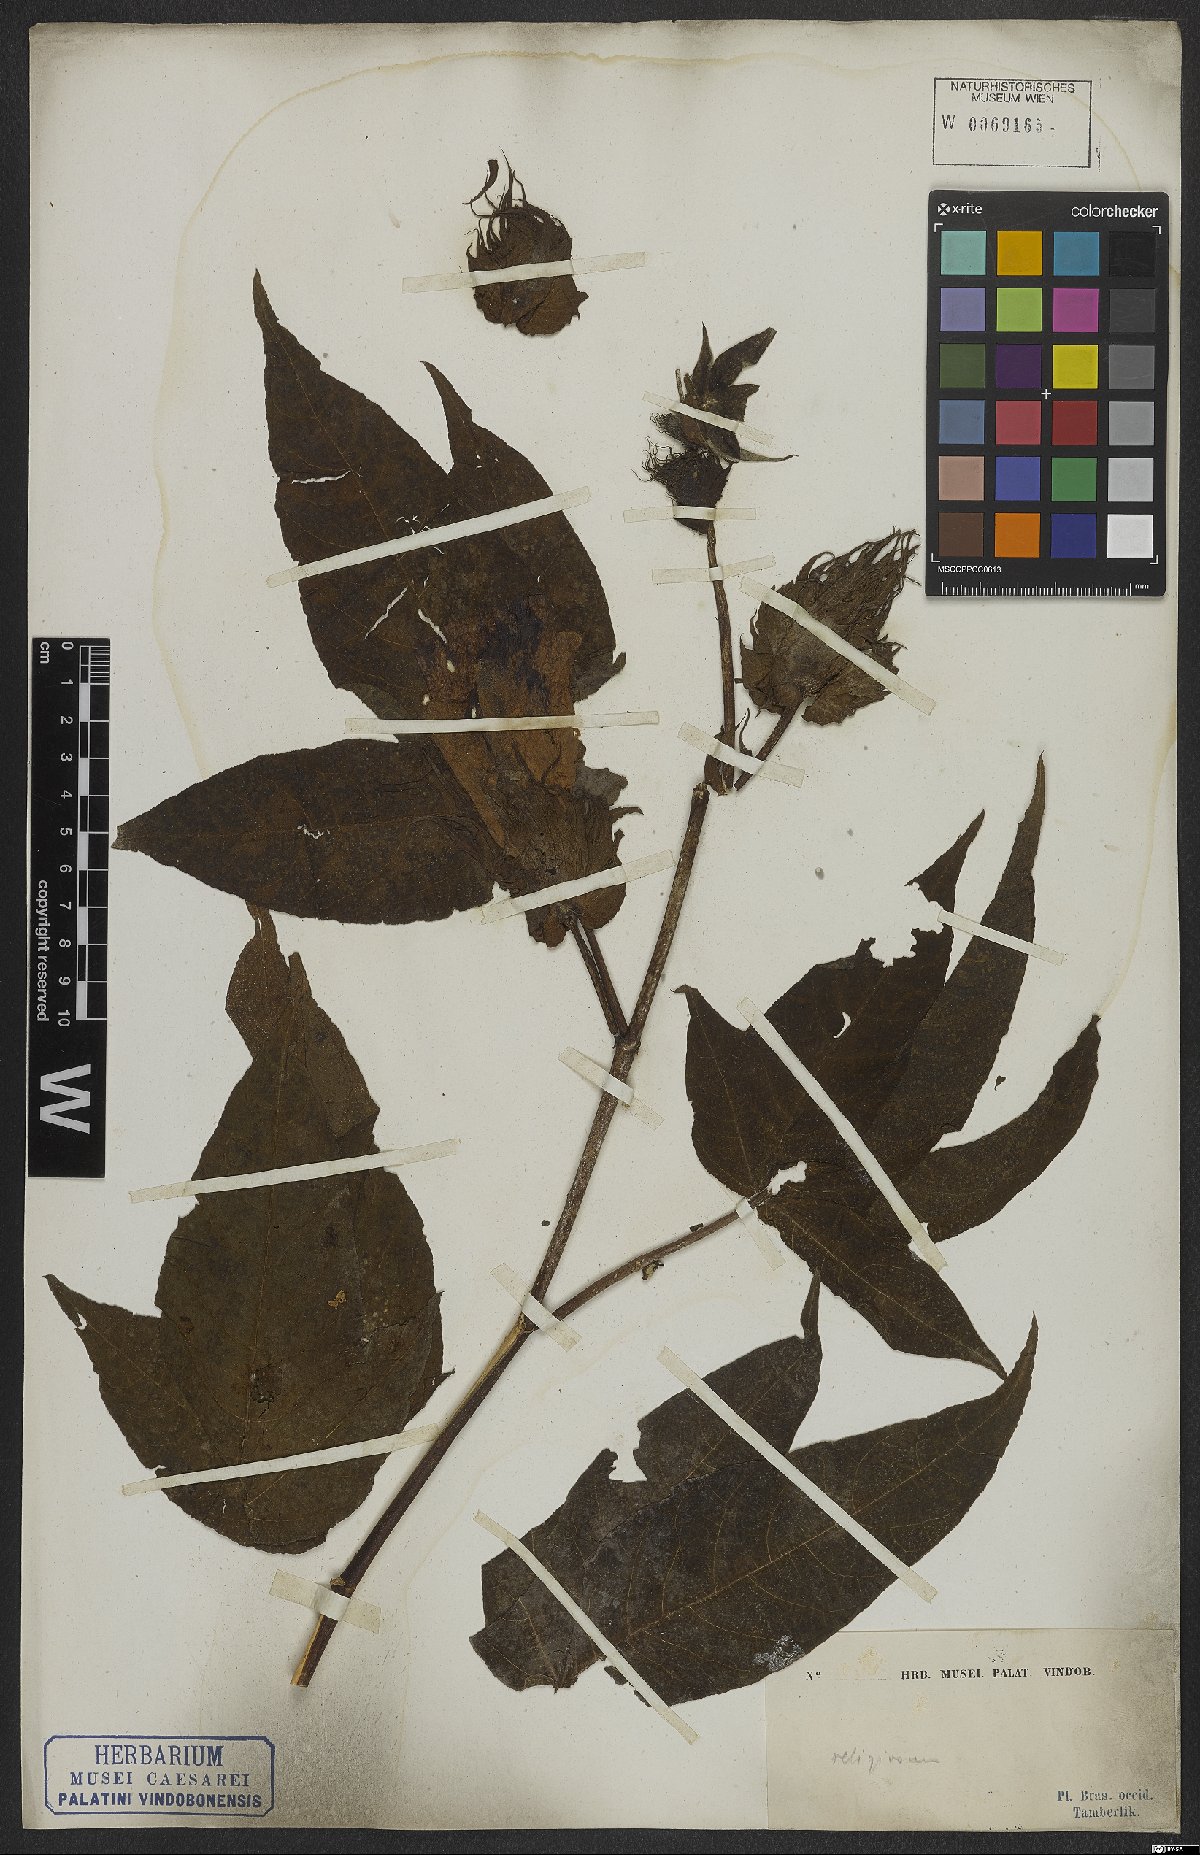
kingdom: Plantae
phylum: Tracheophyta
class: Magnoliopsida
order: Malvales
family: Malvaceae
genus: Gossypium
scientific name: Gossypium hirsutum
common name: Cotton
